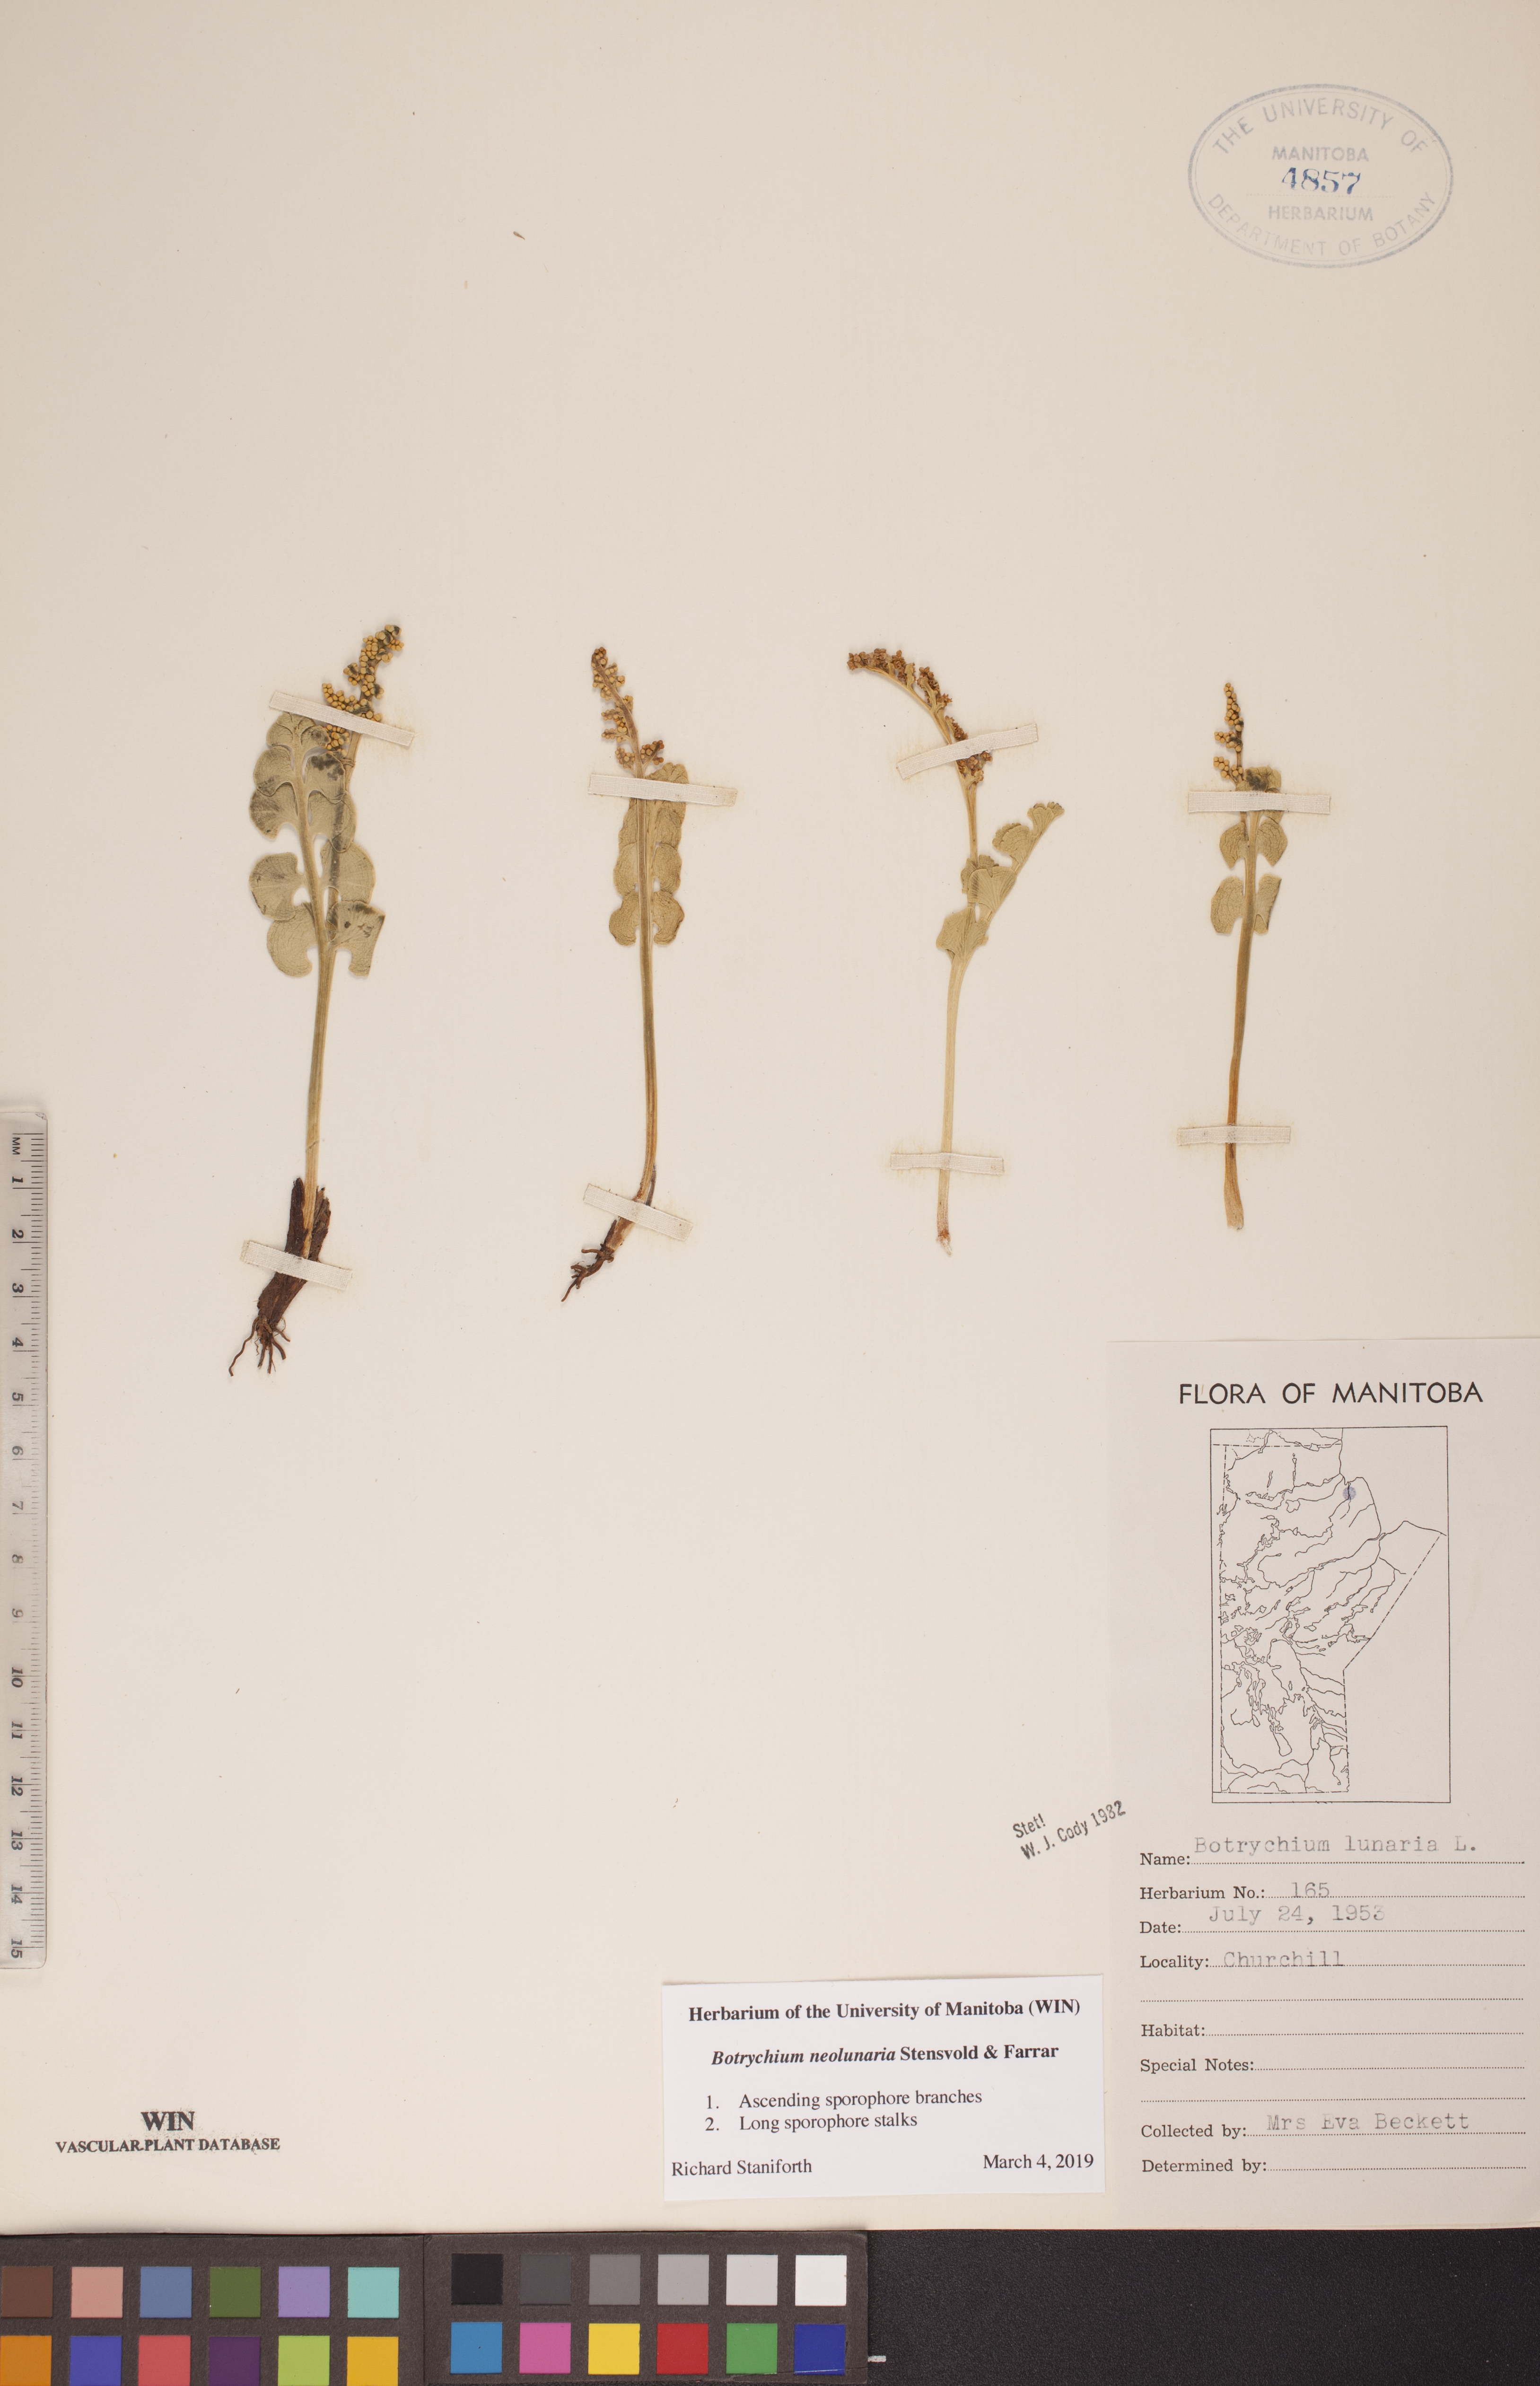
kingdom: Plantae
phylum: Tracheophyta
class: Polypodiopsida
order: Ophioglossales
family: Ophioglossaceae
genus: Botrychium
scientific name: Botrychium neolunaria
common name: New world moonwort
